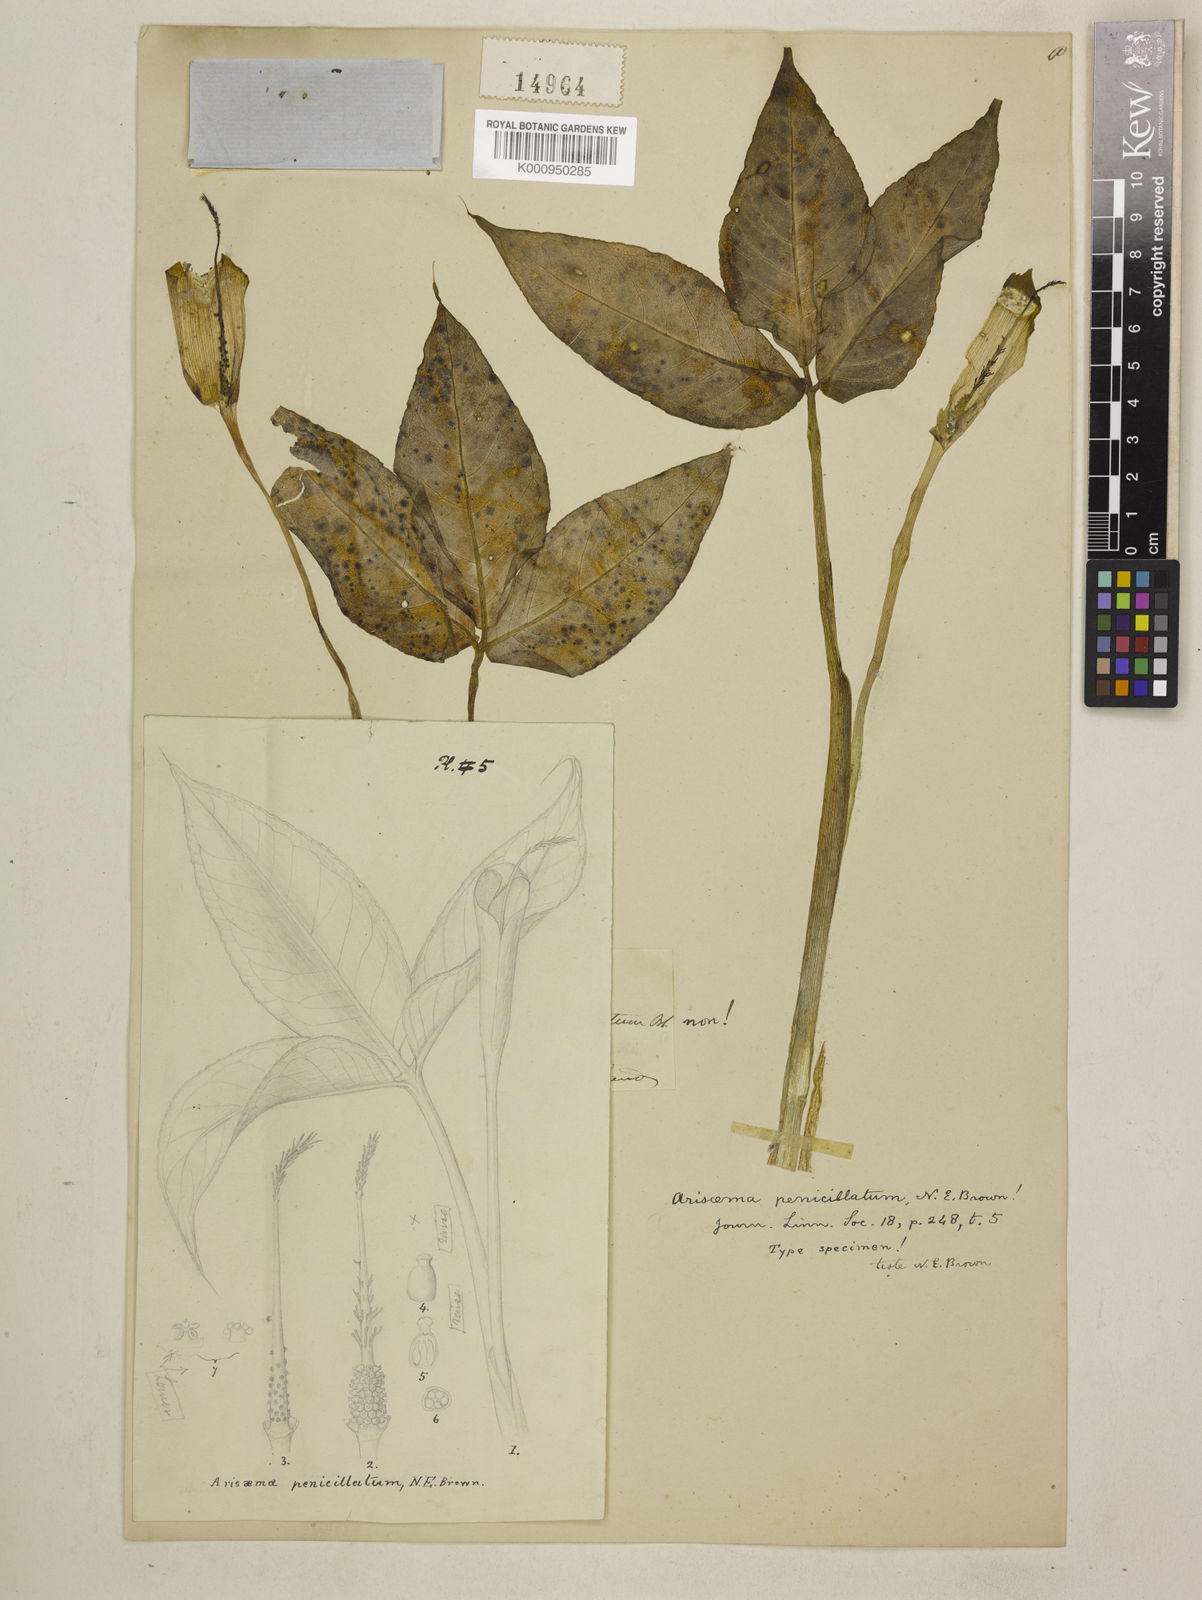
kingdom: Plantae
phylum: Tracheophyta
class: Liliopsida
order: Alismatales
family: Araceae
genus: Arisaema
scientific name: Arisaema penicillatum
